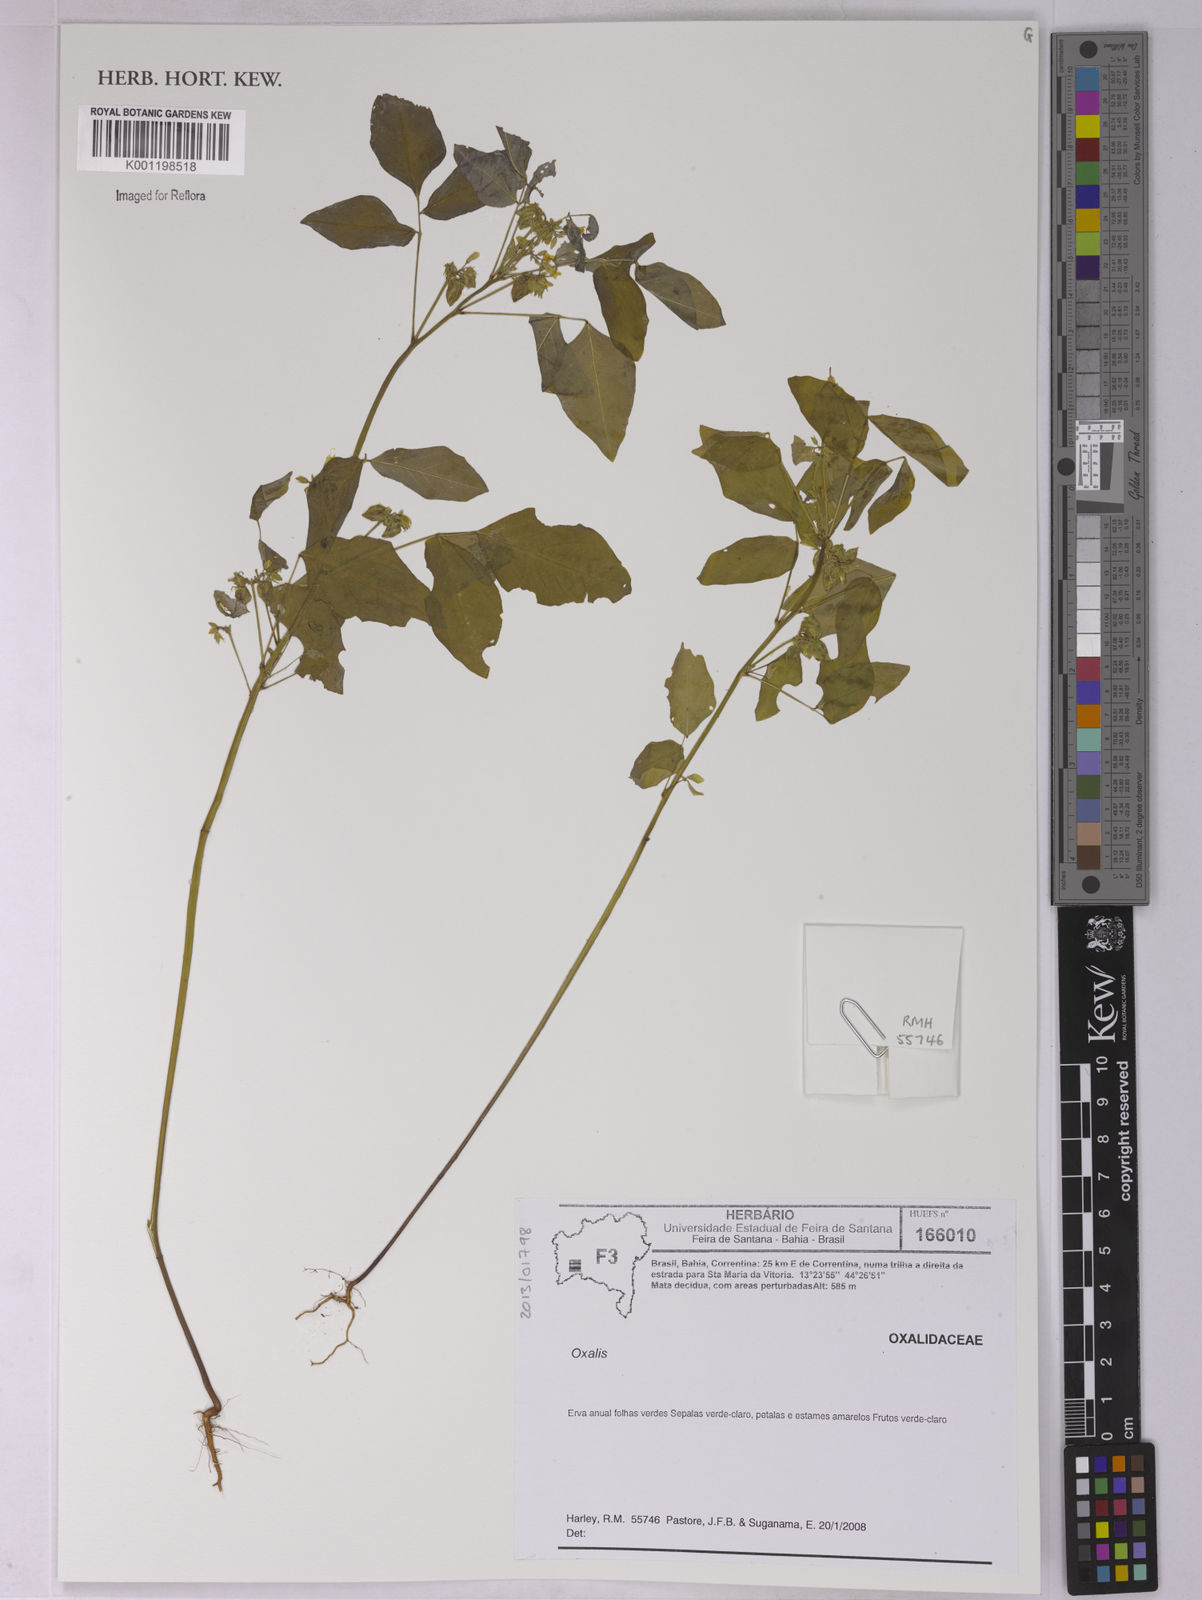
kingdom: Plantae
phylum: Tracheophyta
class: Magnoliopsida
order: Oxalidales
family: Oxalidaceae
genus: Oxalis
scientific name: Oxalis
